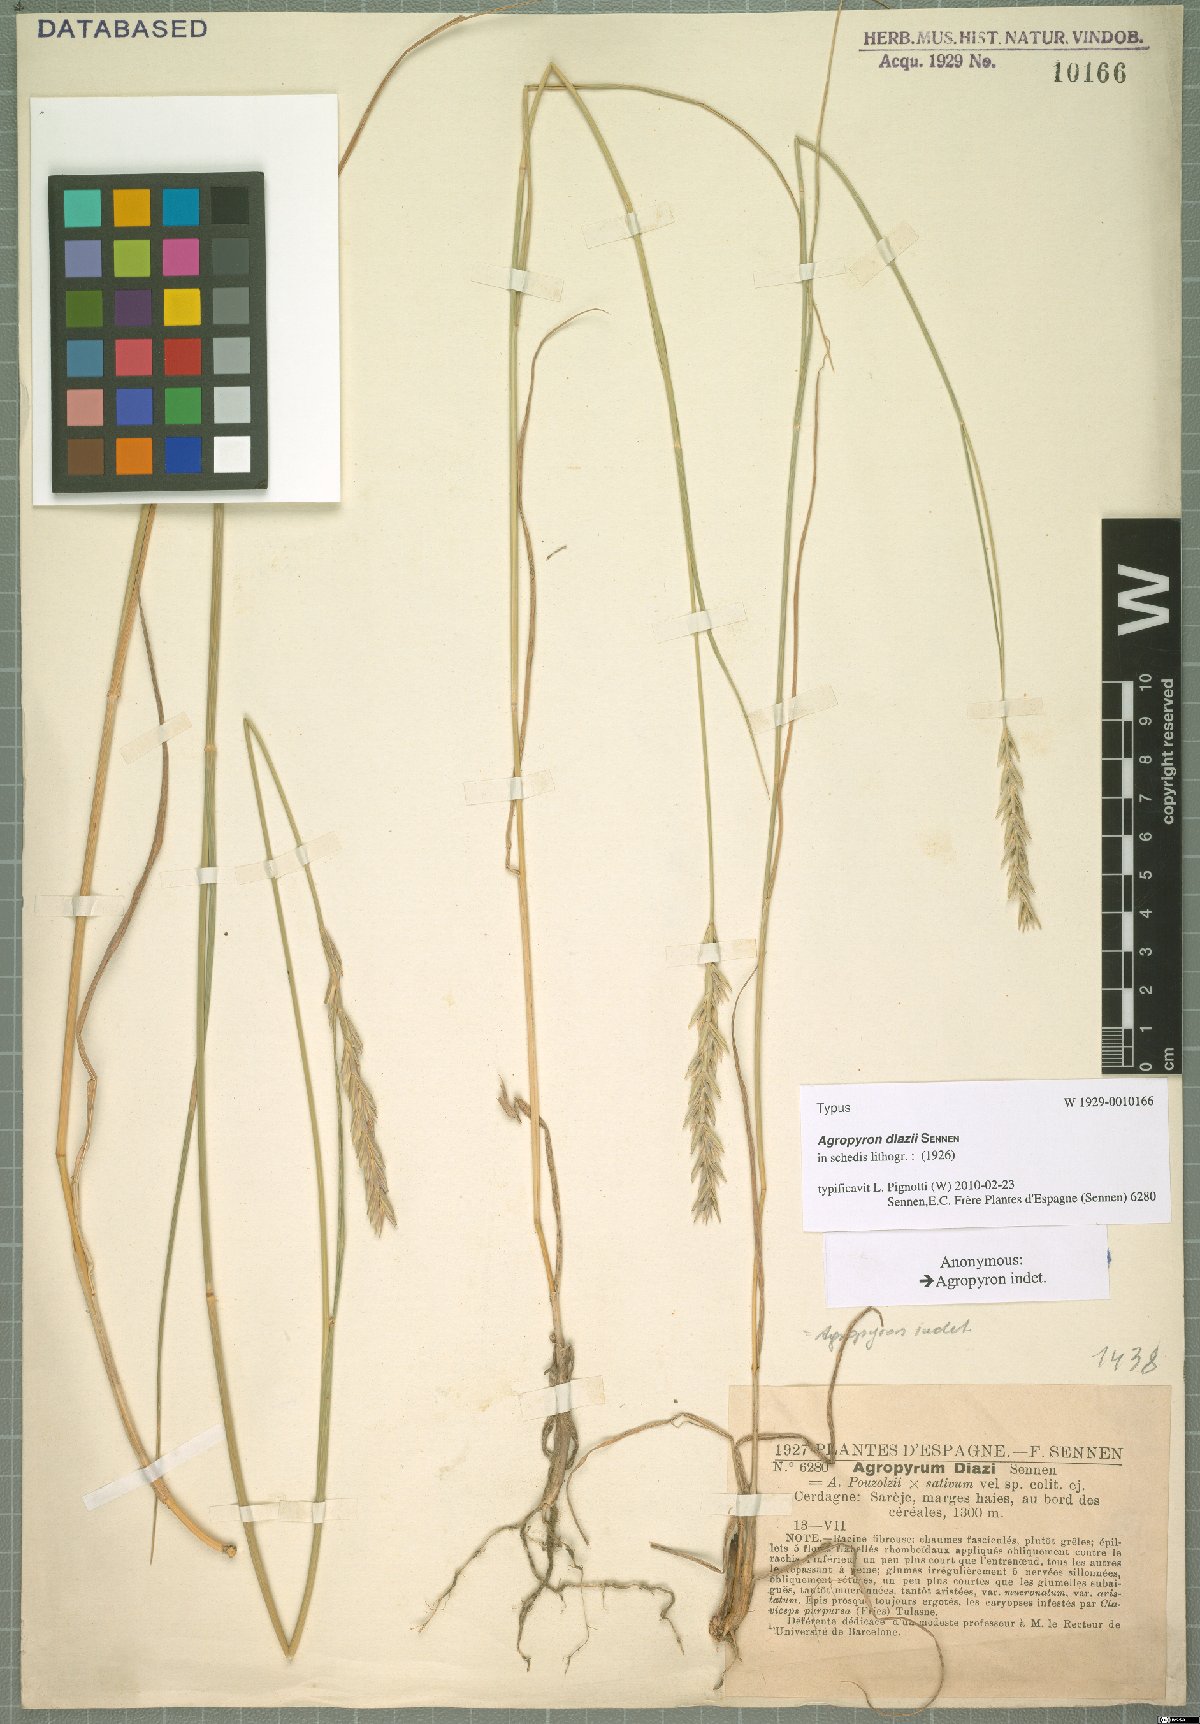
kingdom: Plantae
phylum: Tracheophyta
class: Liliopsida
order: Poales
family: Poaceae
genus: Agropyron
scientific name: Agropyron
